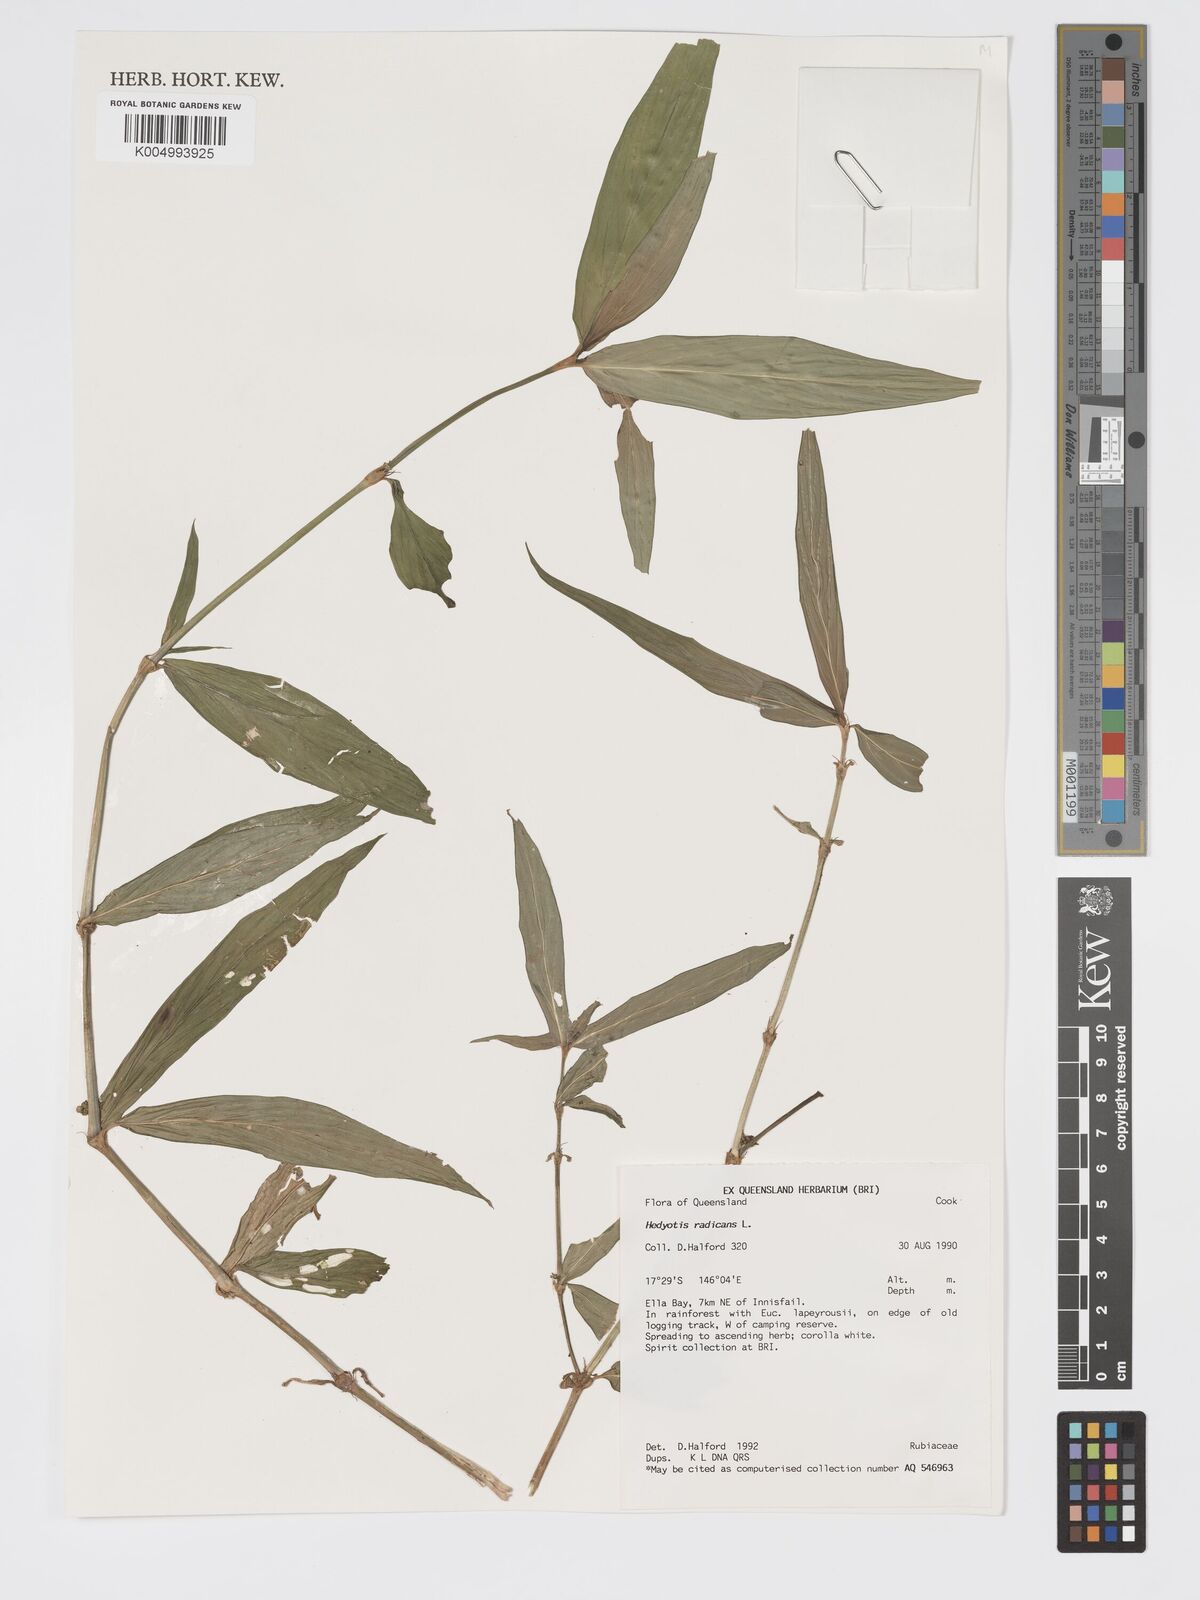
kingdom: Plantae
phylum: Tracheophyta
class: Magnoliopsida
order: Gentianales
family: Rubiaceae
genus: Oldenlandia
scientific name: Oldenlandia
